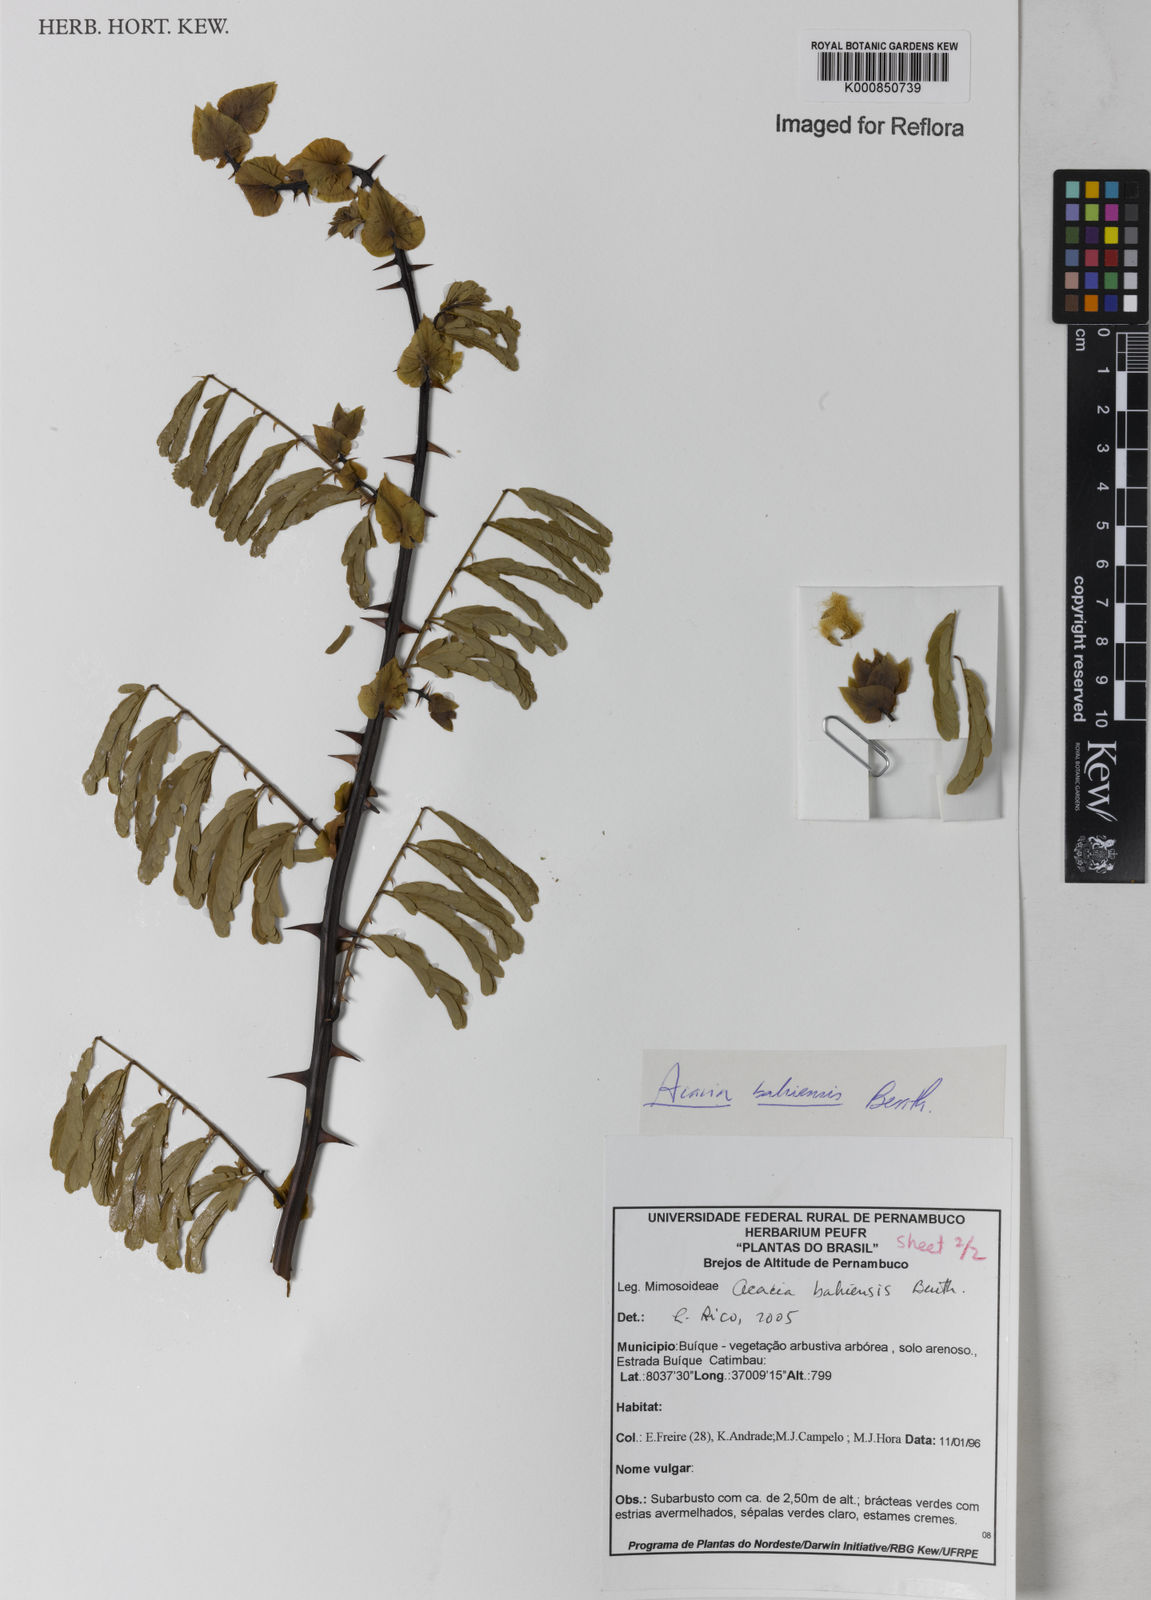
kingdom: Plantae
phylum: Tracheophyta
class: Magnoliopsida
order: Fabales
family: Fabaceae
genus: Senegalia
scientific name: Senegalia bahiensis
